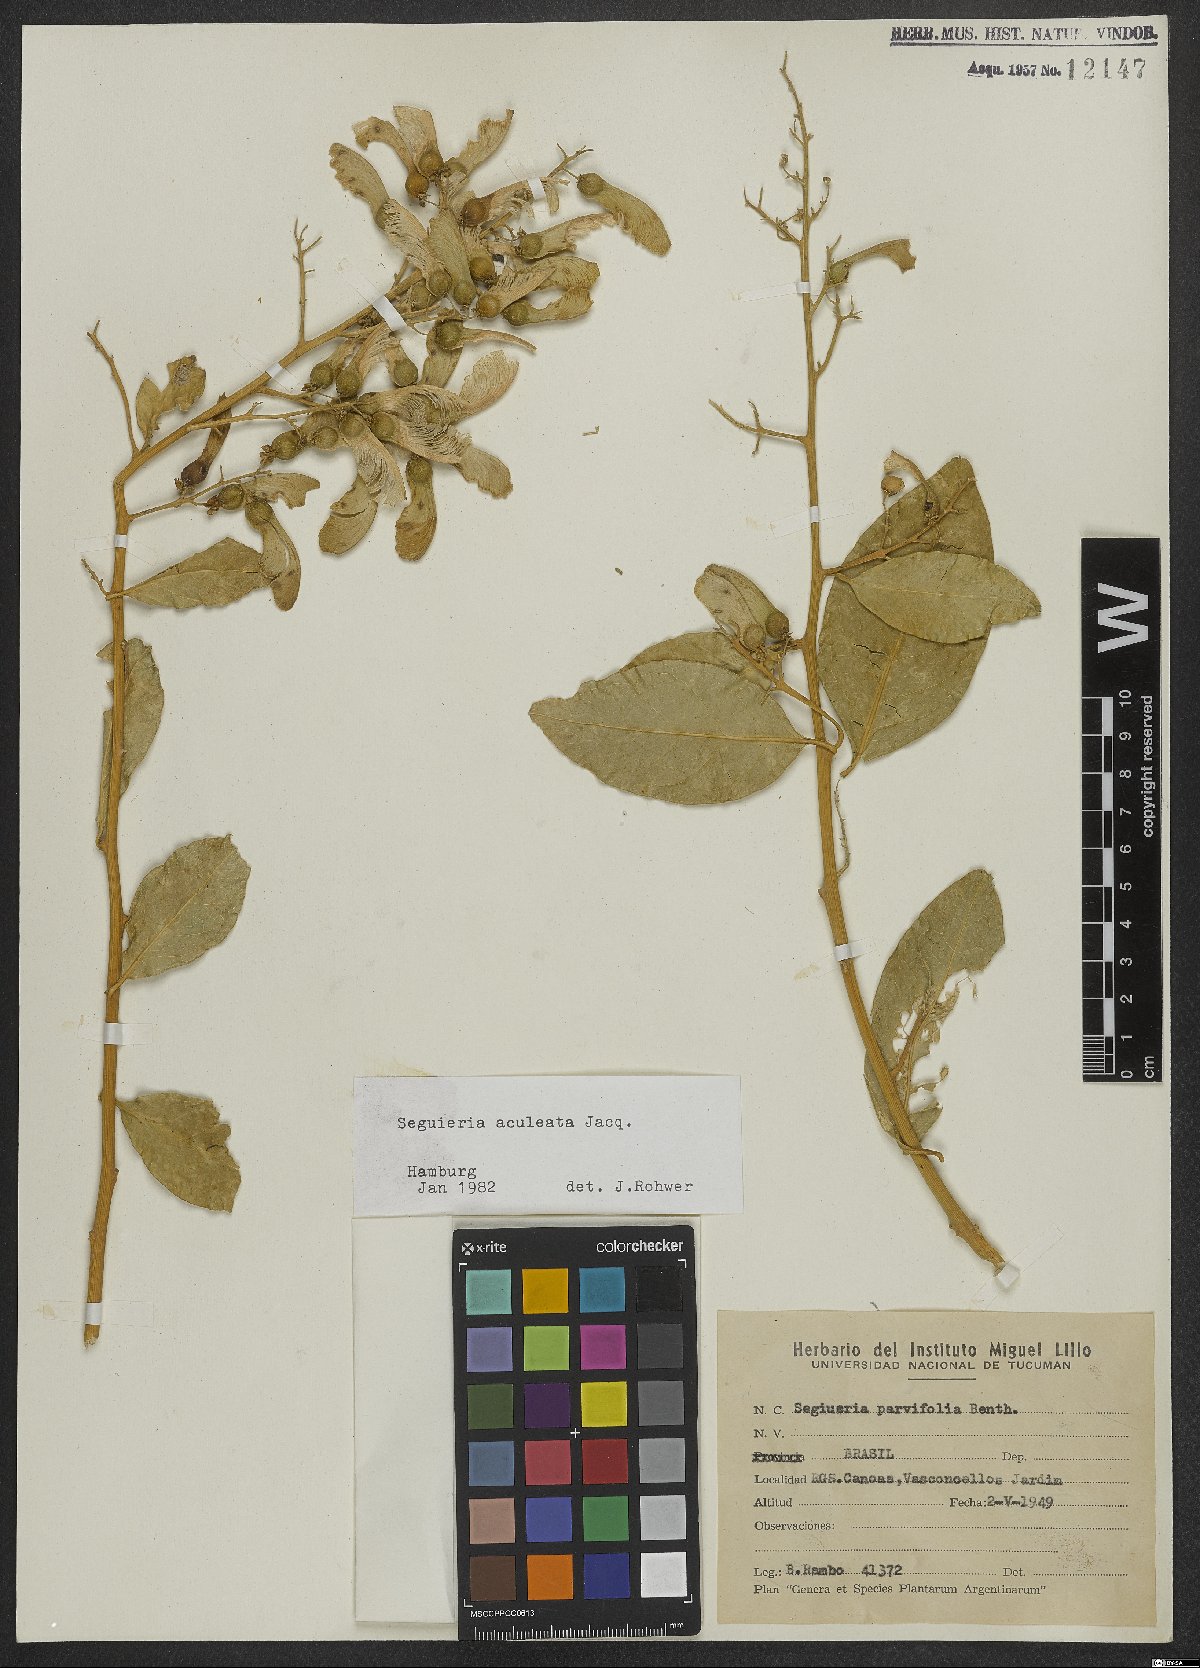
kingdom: Plantae
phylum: Tracheophyta
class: Magnoliopsida
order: Caryophyllales
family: Phytolaccaceae
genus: Seguieria
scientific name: Seguieria aculeata
